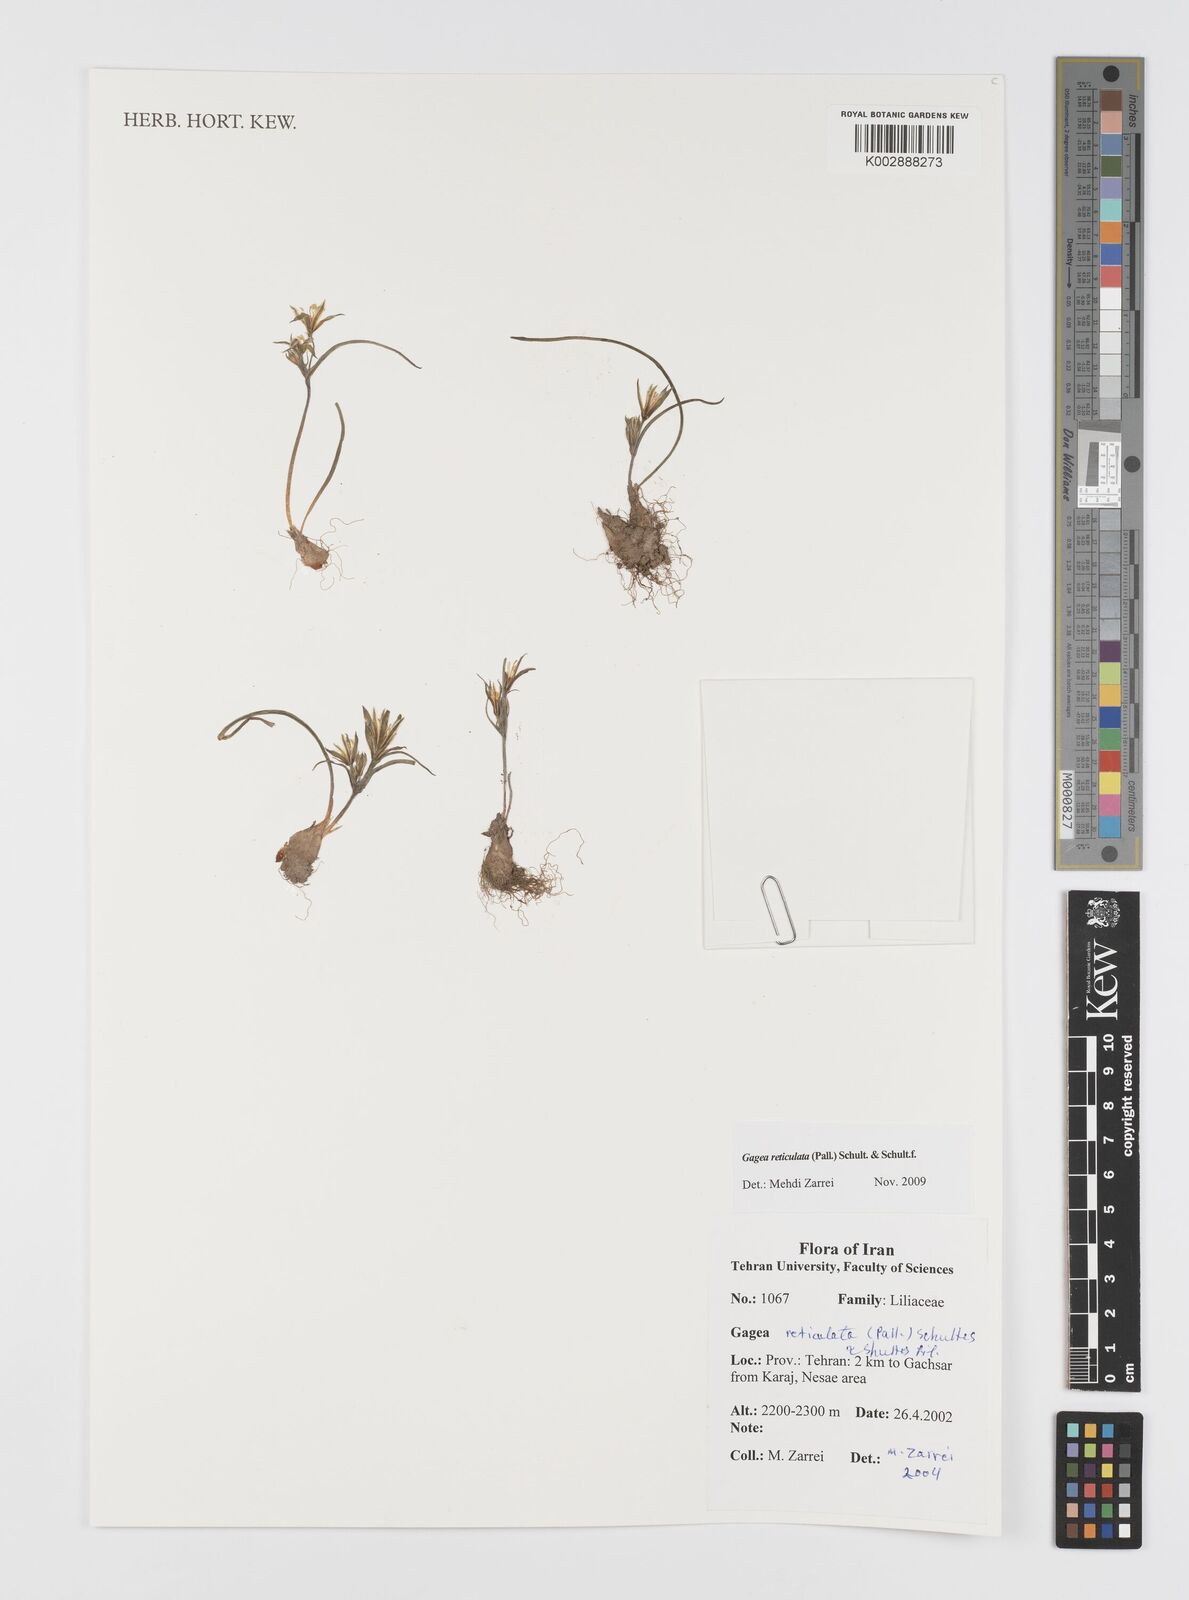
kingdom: Plantae
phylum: Tracheophyta
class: Liliopsida
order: Liliales
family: Liliaceae
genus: Gagea
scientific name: Gagea reticulata
